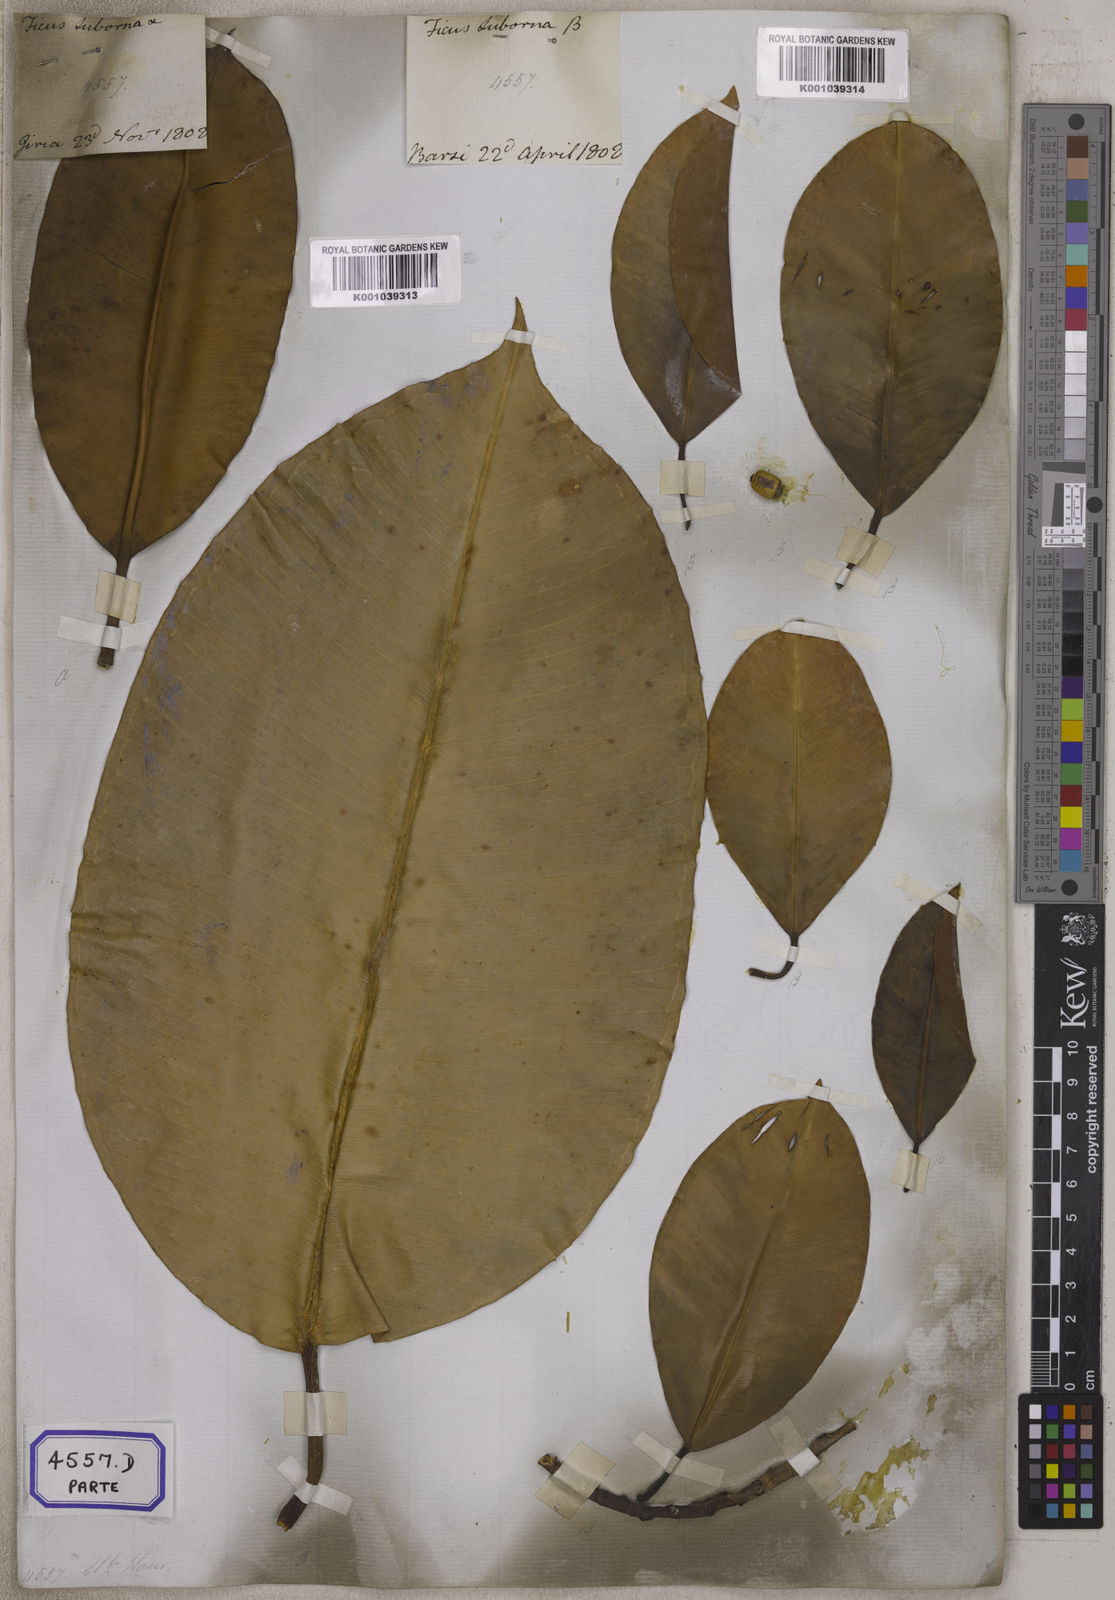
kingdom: Plantae
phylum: Tracheophyta
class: Magnoliopsida
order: Rosales
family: Moraceae
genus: Ficus
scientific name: Ficus
